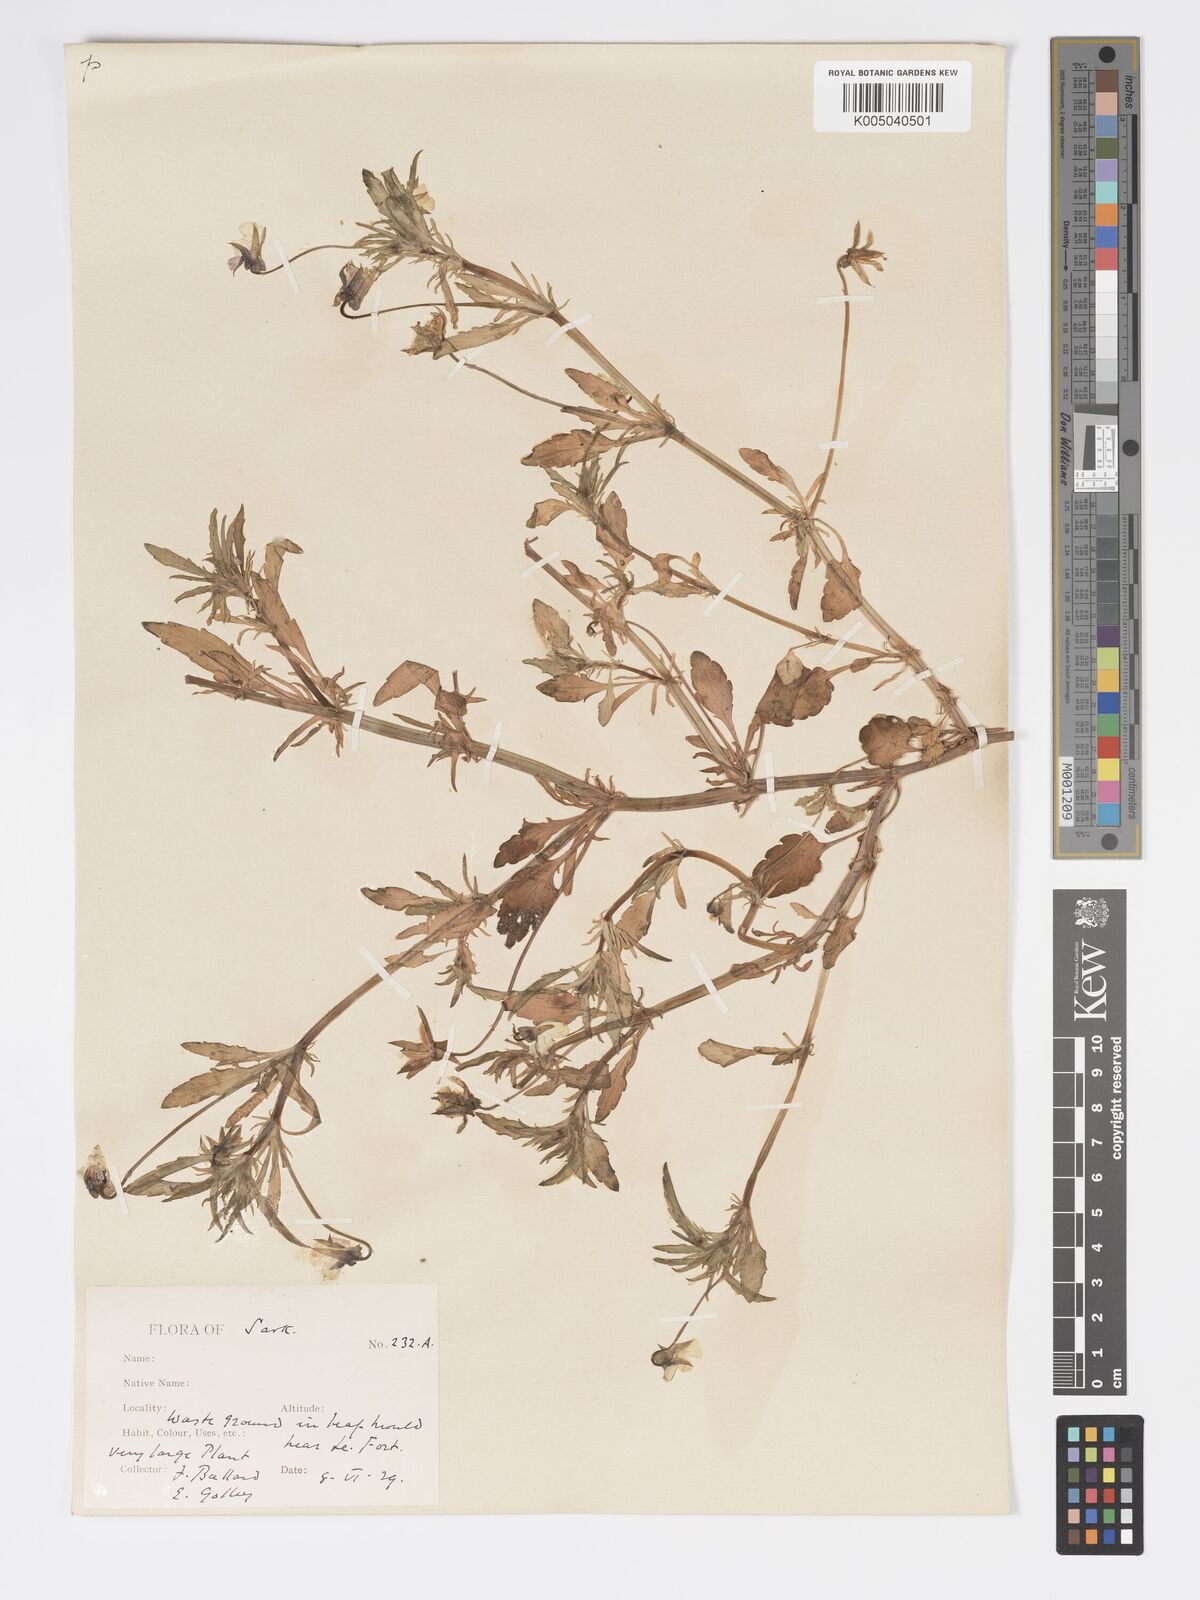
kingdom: Plantae
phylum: Tracheophyta
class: Magnoliopsida
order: Malpighiales
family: Violaceae
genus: Viola
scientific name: Viola arvensis
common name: Field pansy
